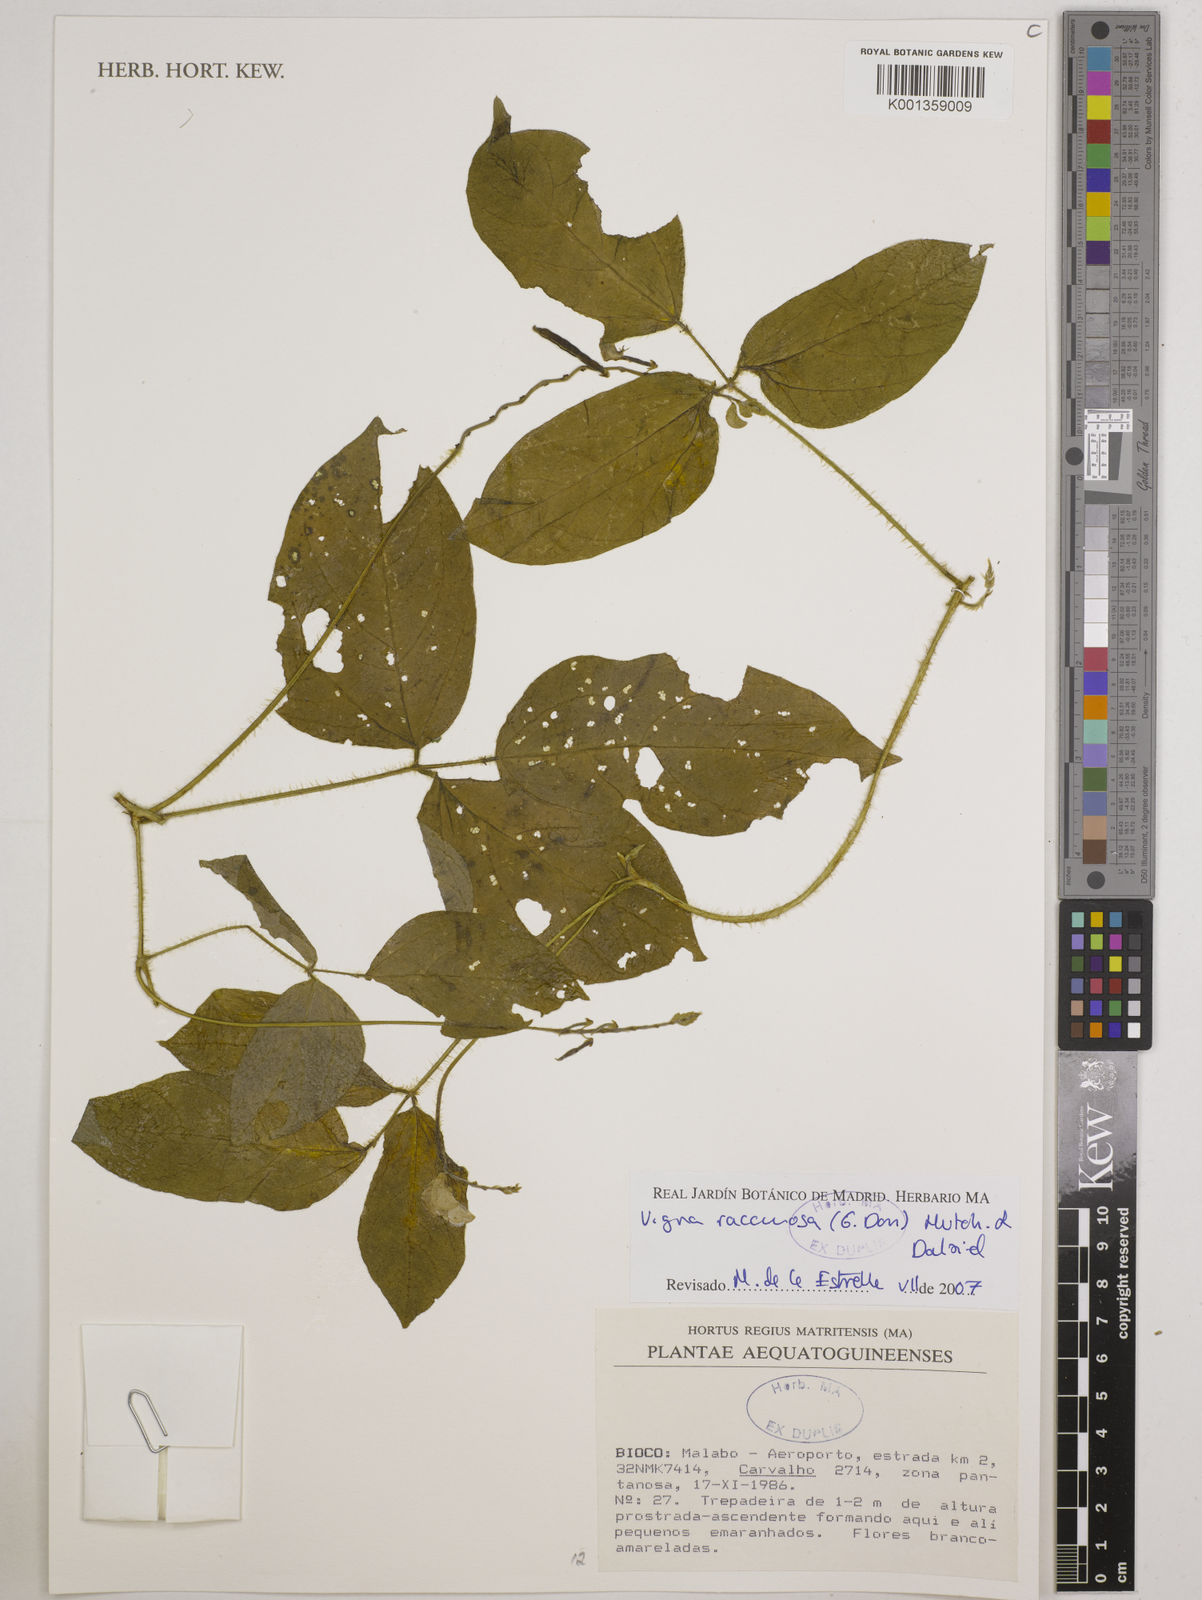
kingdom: Plantae
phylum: Tracheophyta
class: Magnoliopsida
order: Fabales
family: Fabaceae
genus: Vigna
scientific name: Vigna racemosa
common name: Beans not eaten
